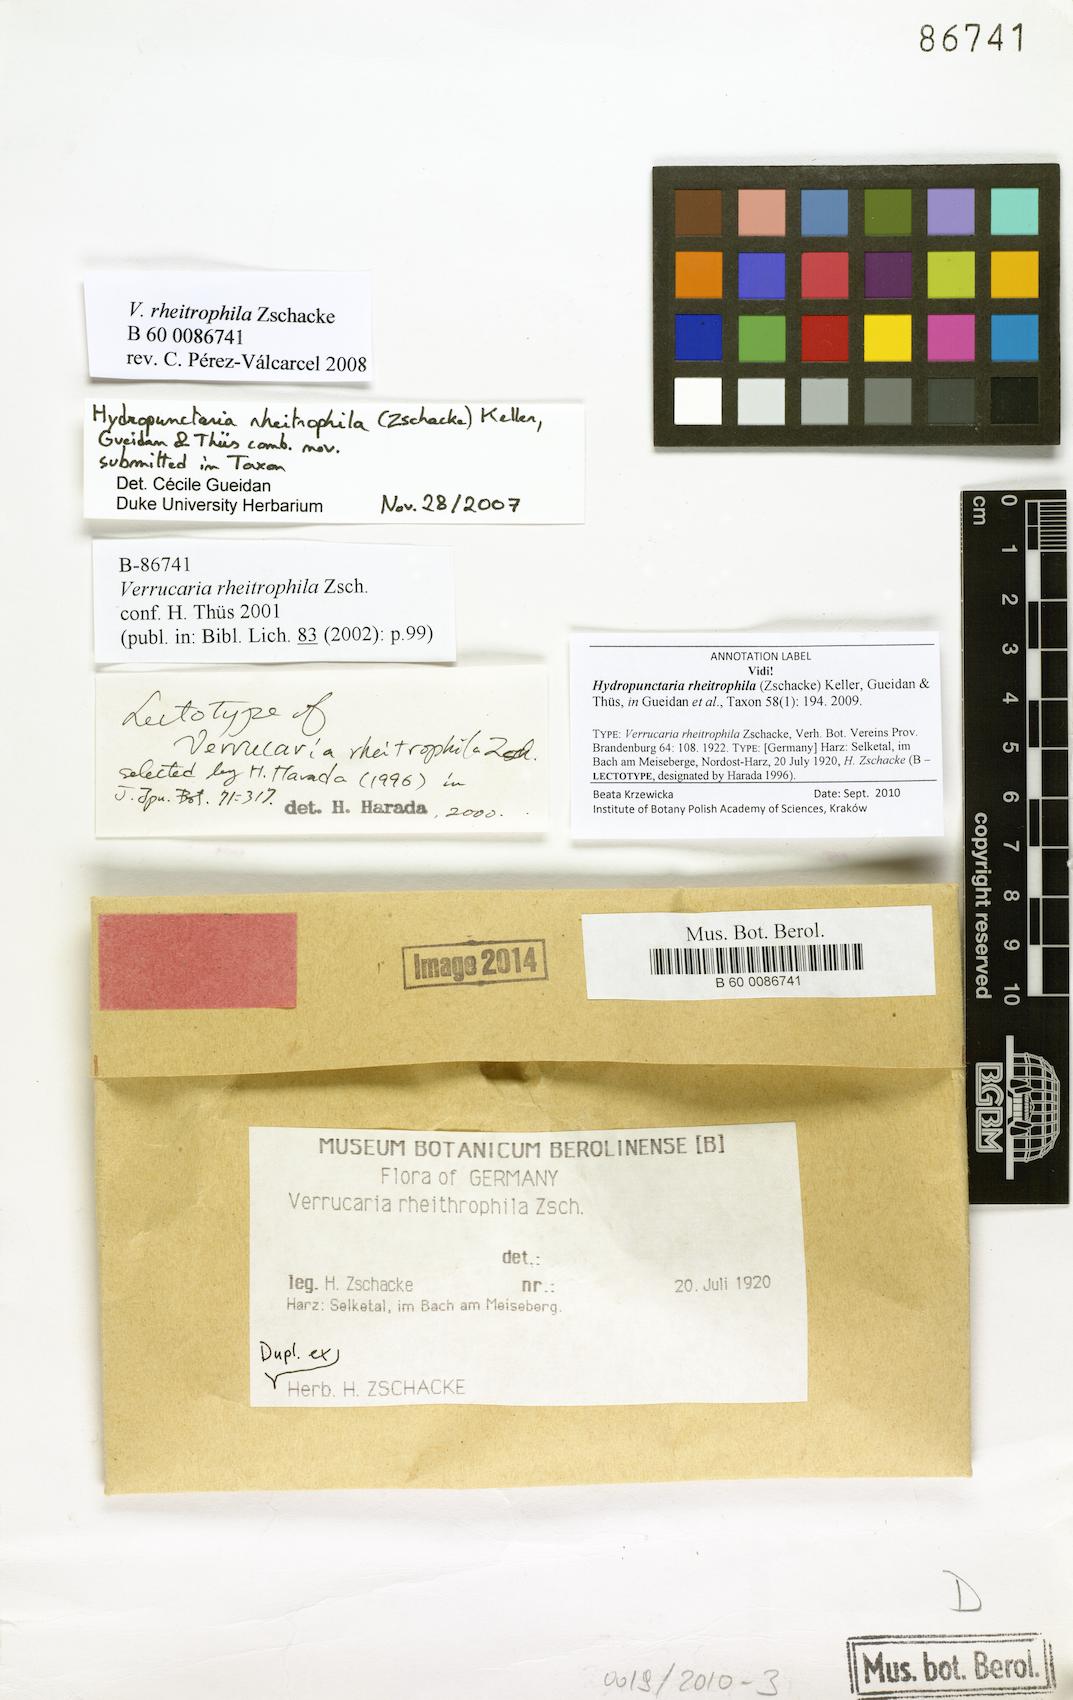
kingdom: Fungi
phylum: Ascomycota
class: Eurotiomycetes
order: Verrucariales
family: Verrucariaceae
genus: Hydropunctaria
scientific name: Hydropunctaria rheitrophila
